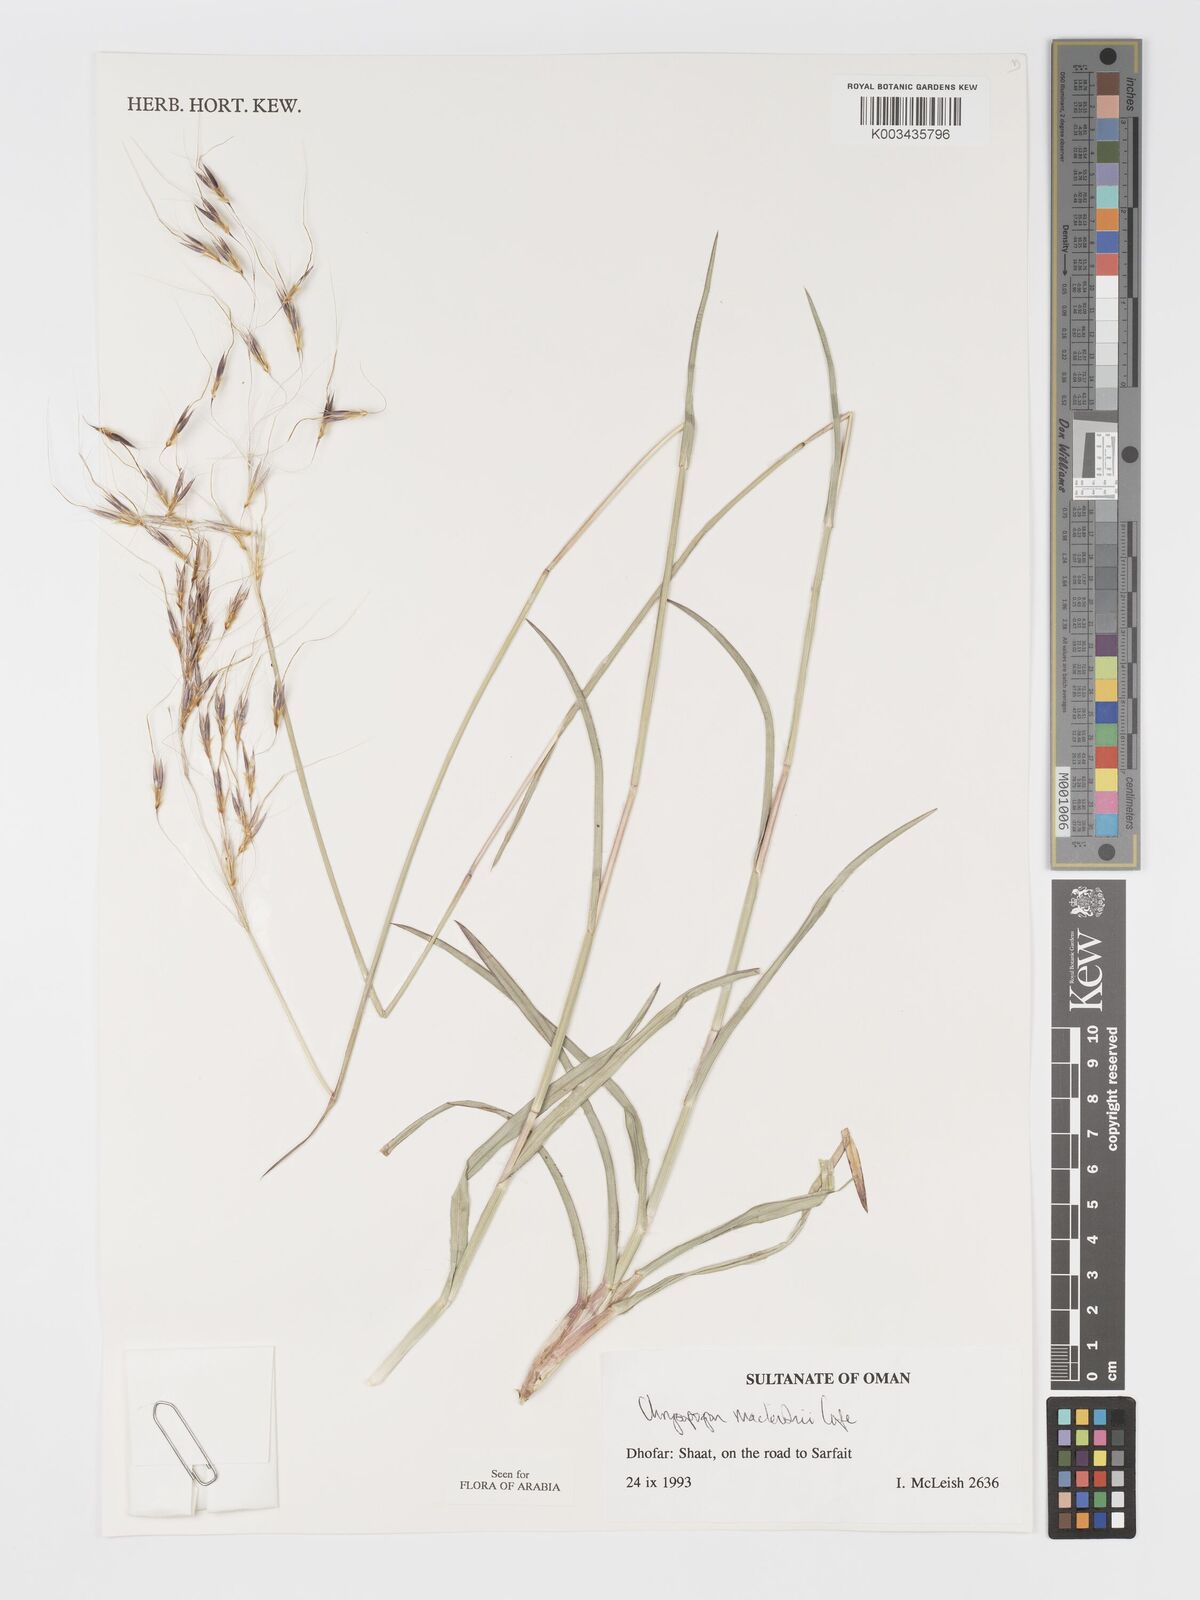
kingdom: Plantae
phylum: Tracheophyta
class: Liliopsida
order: Poales
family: Poaceae
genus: Chrysopogon
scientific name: Chrysopogon macleishii
